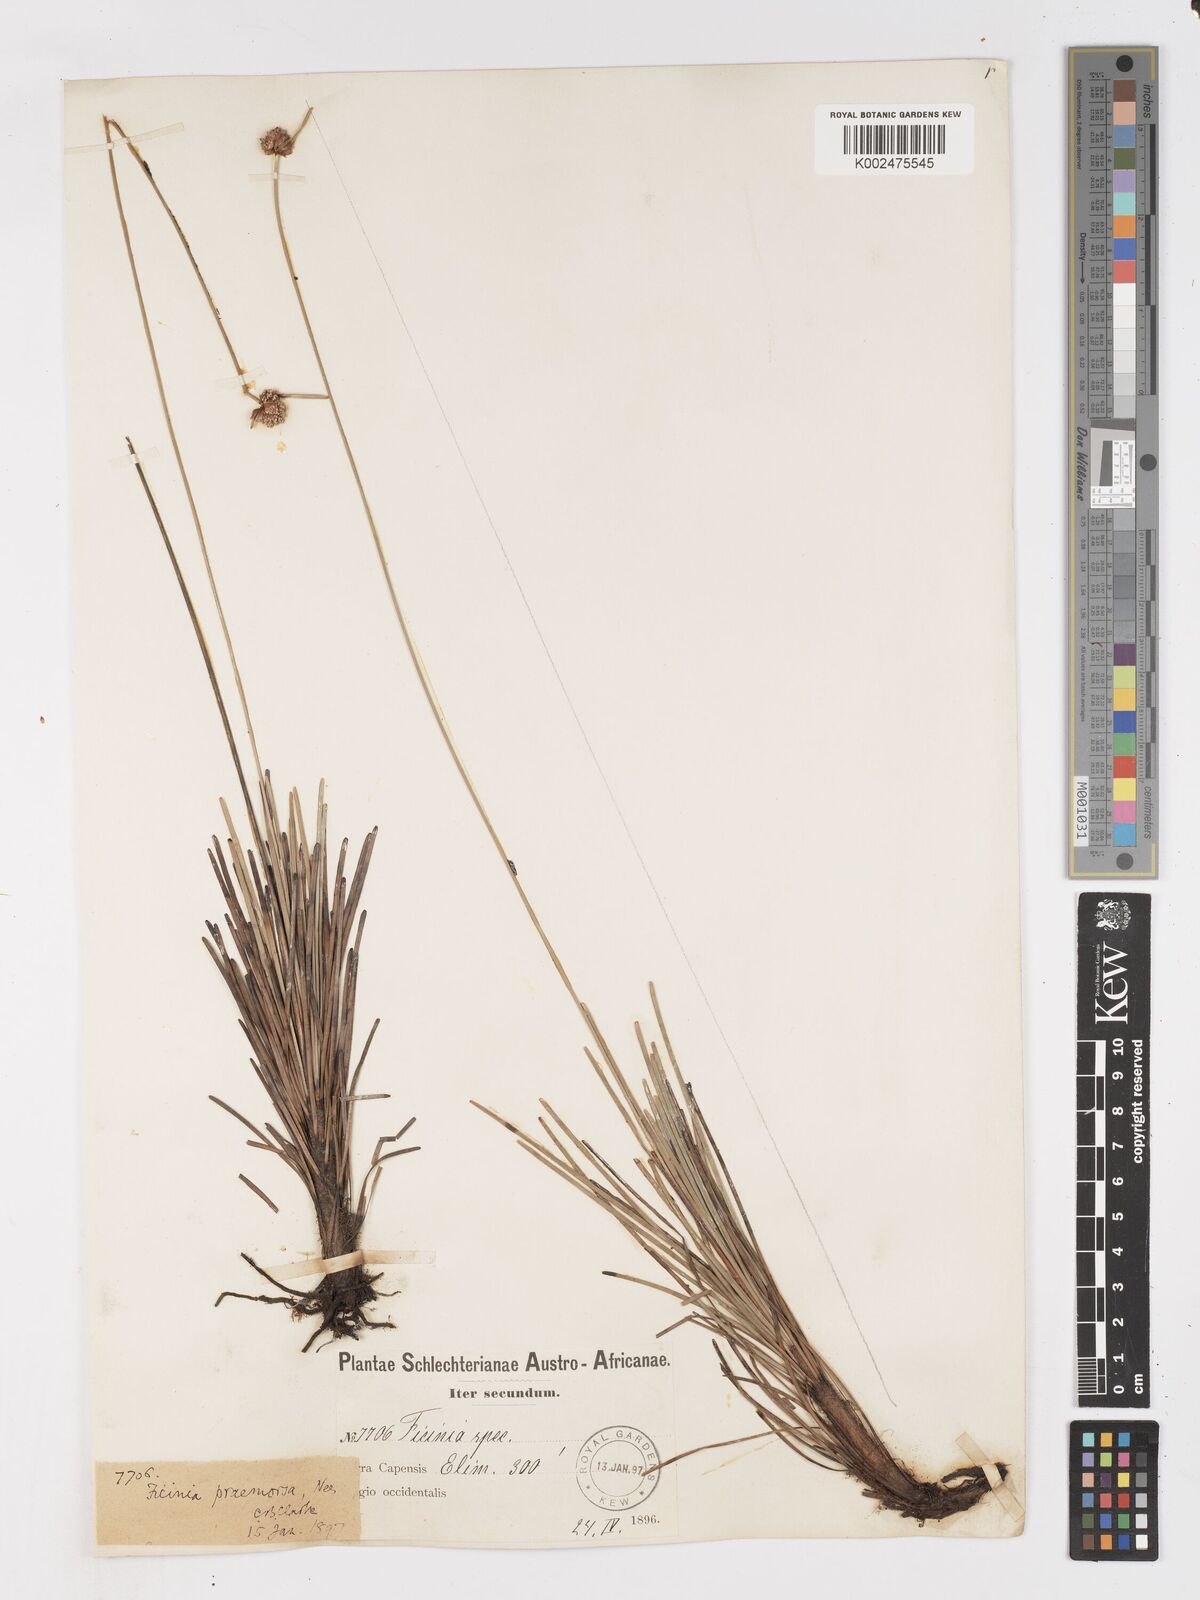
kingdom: Plantae
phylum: Tracheophyta
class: Liliopsida
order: Poales
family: Cyperaceae
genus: Ficinia
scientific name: Ficinia praemorsa
